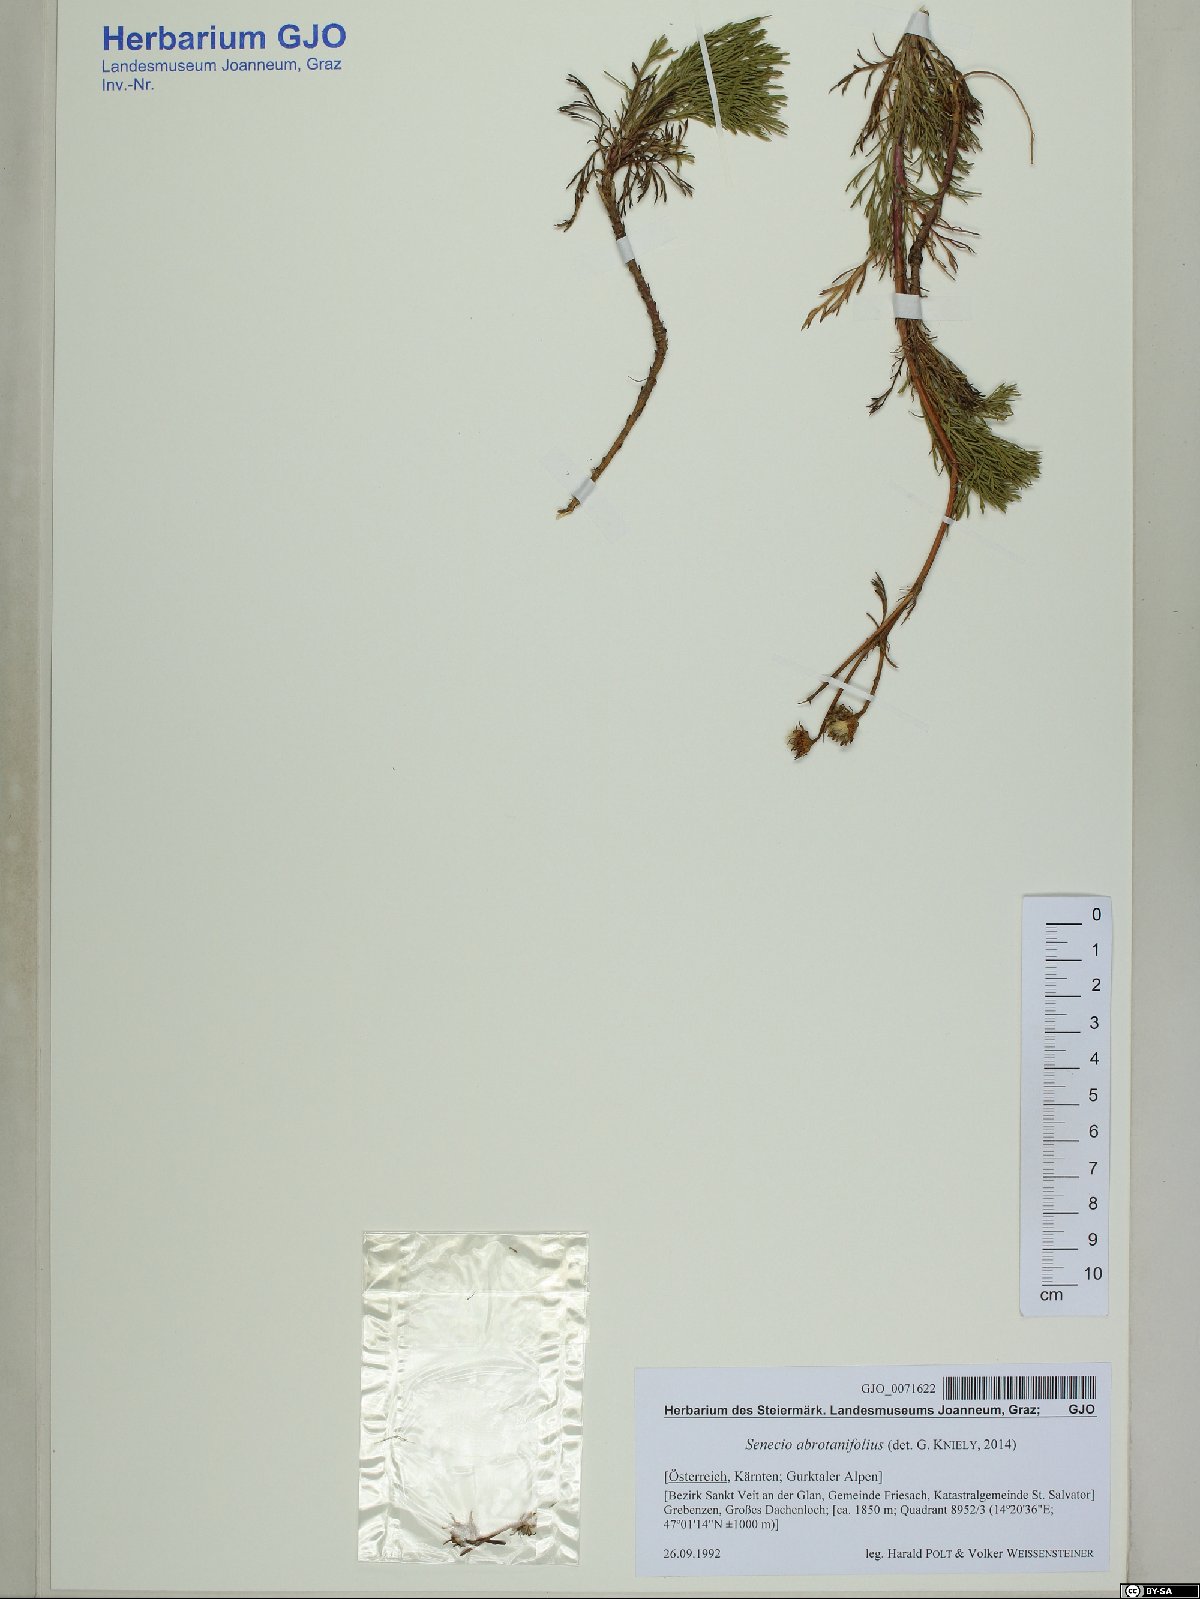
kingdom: Plantae
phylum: Tracheophyta
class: Magnoliopsida
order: Asterales
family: Asteraceae
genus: Jacobaea
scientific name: Jacobaea abrotanifolia
